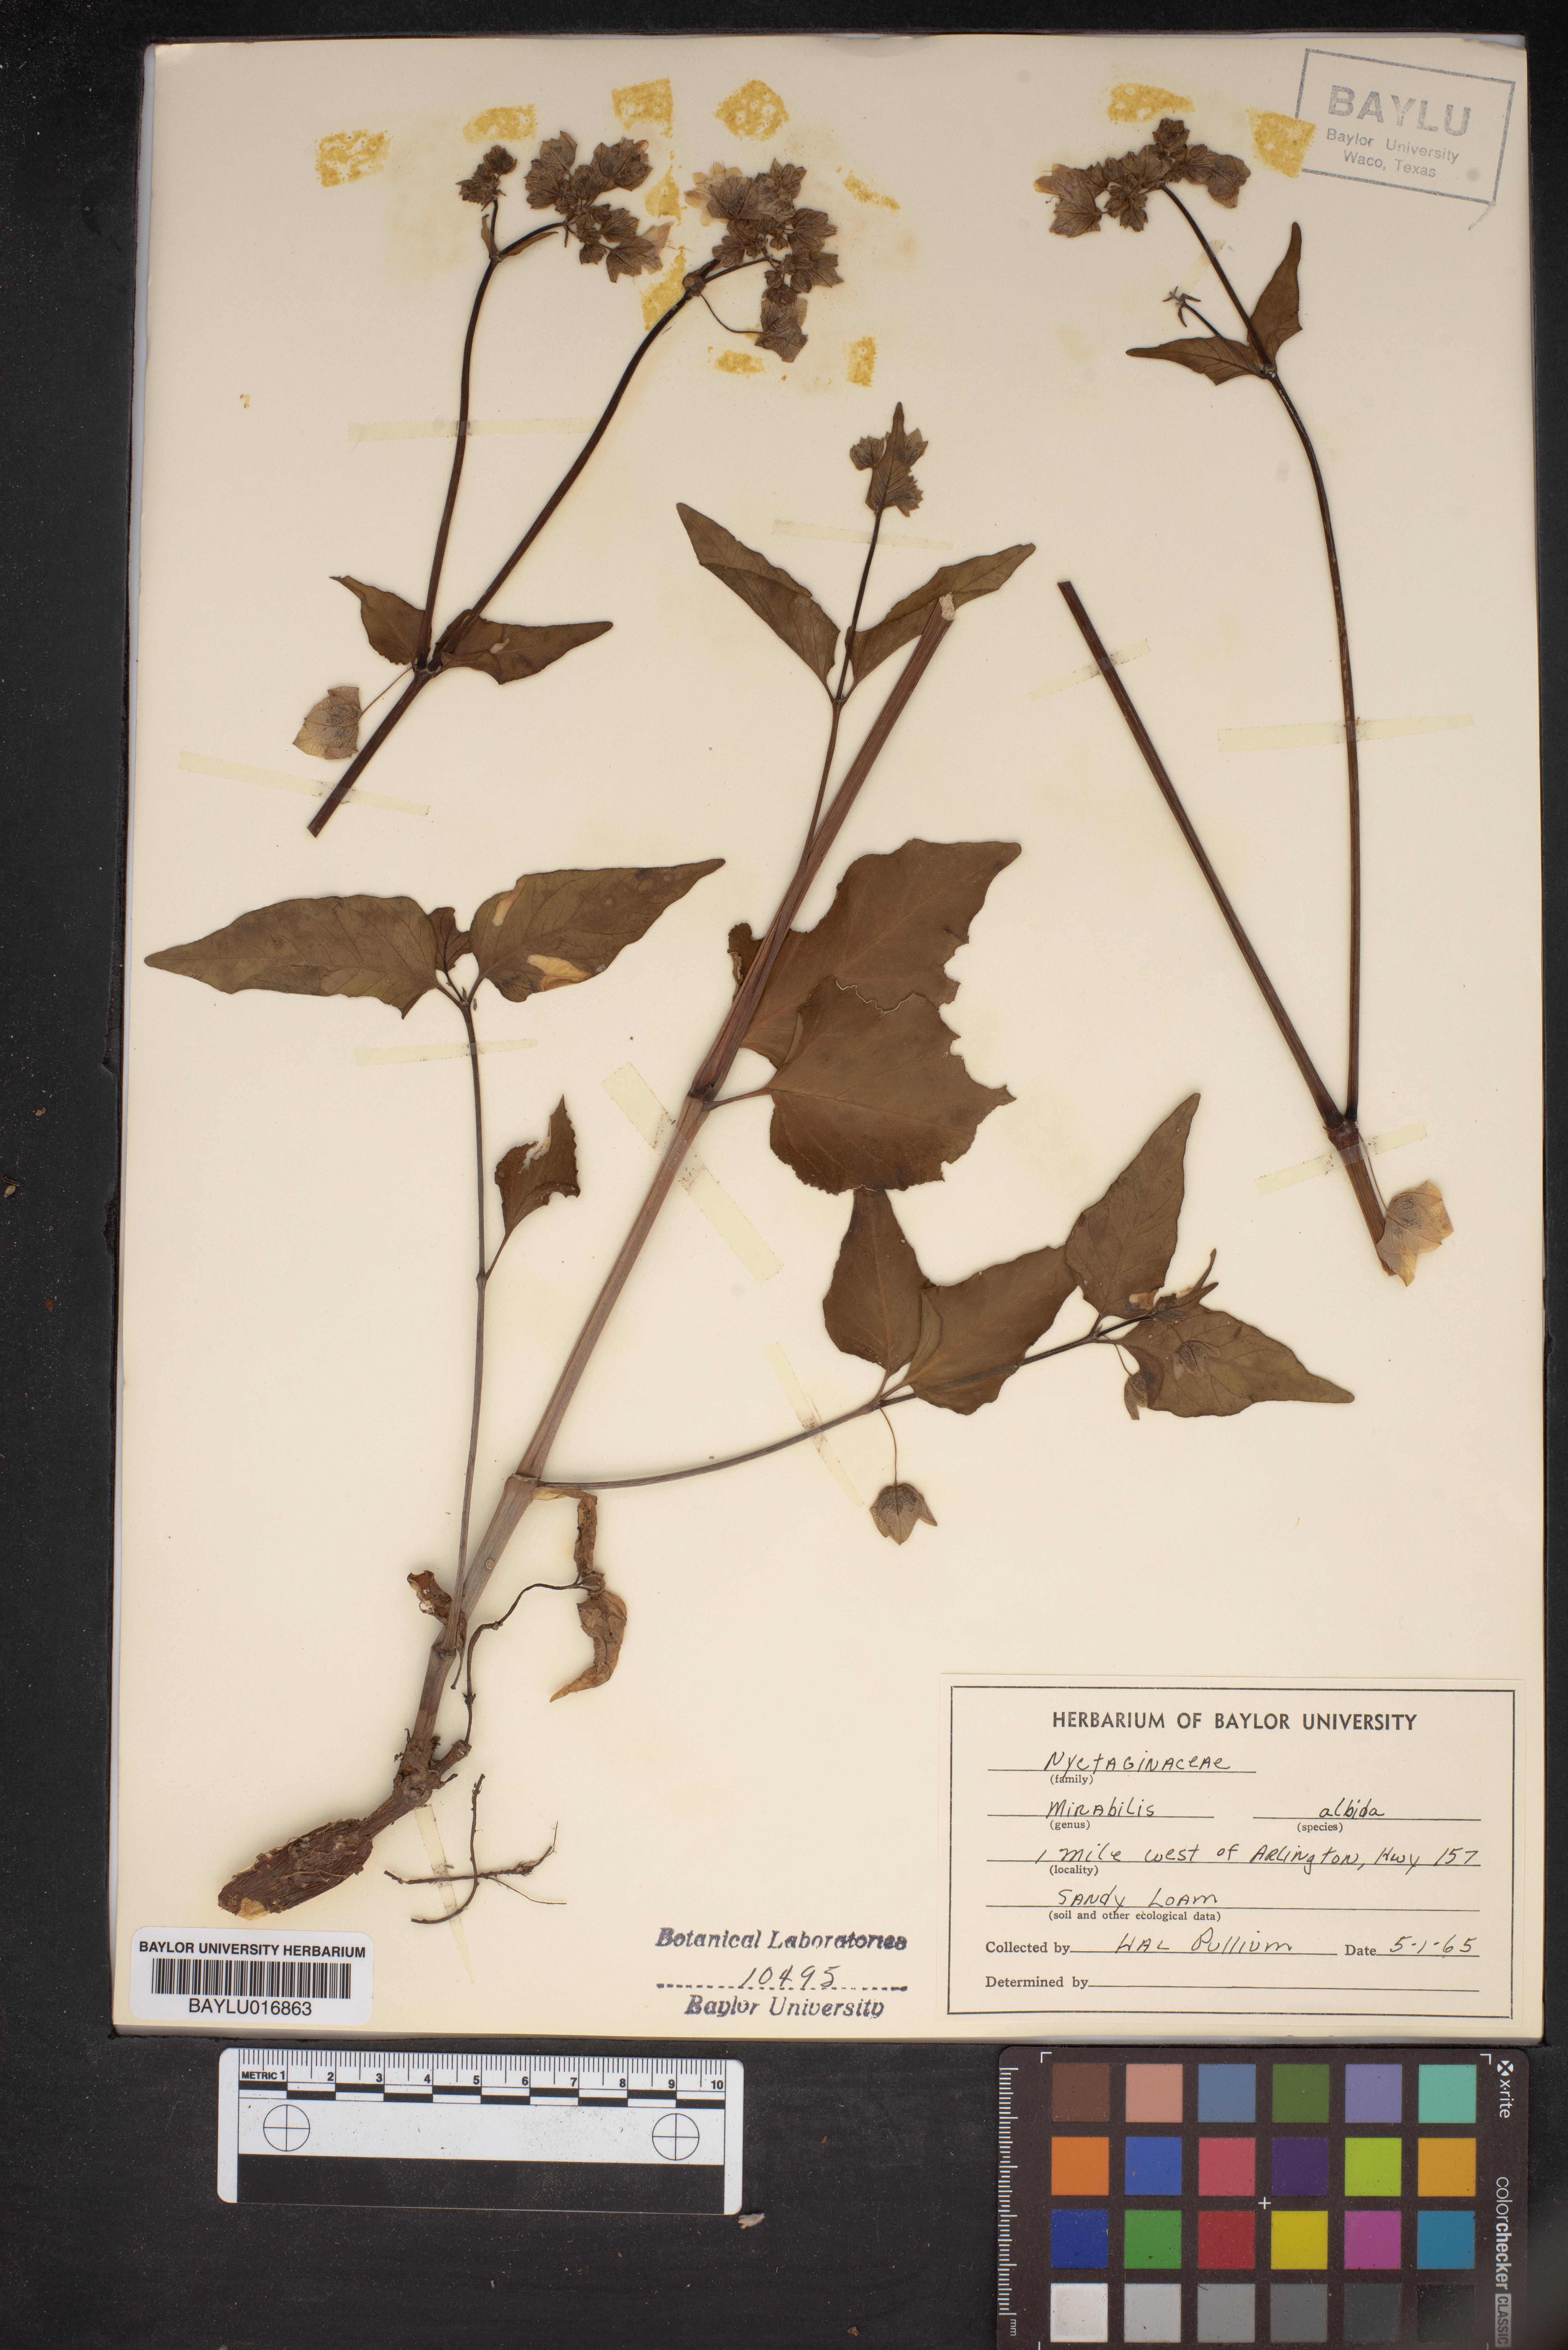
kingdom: Plantae
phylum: Tracheophyta
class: Magnoliopsida
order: Caryophyllales
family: Nyctaginaceae
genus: Mirabilis
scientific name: Mirabilis albida
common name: Hairy four-o'clock
